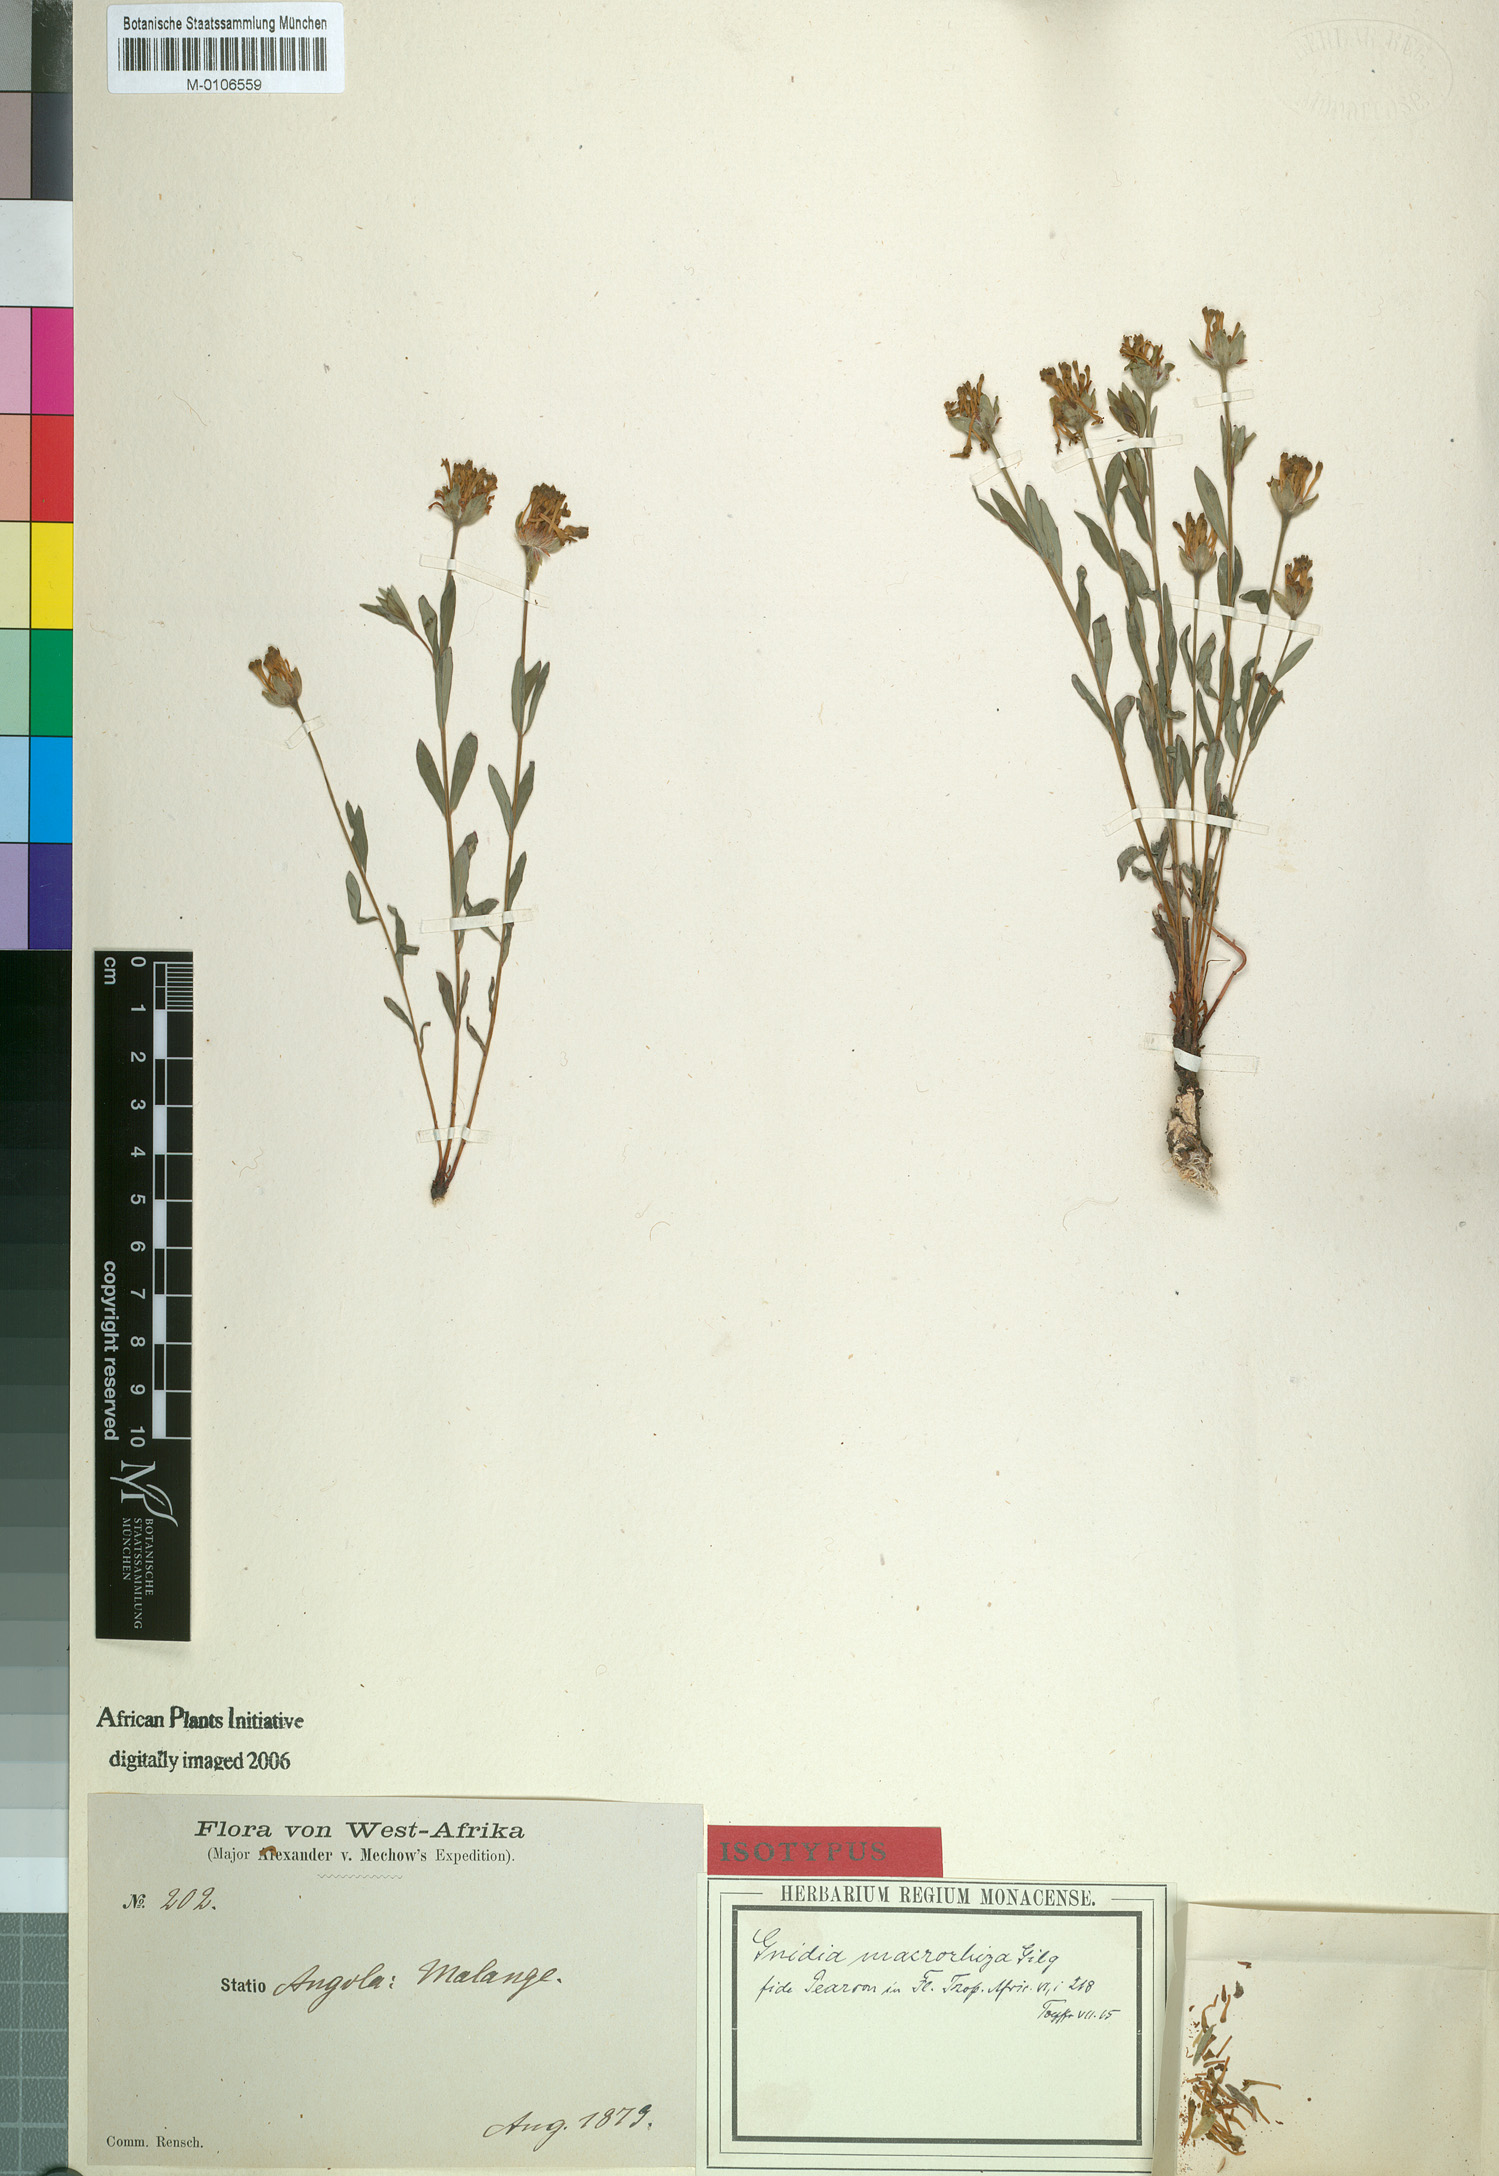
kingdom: Plantae
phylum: Tracheophyta
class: Magnoliopsida
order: Malvales
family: Thymelaeaceae
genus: Gnidia
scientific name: Gnidia involucrata
